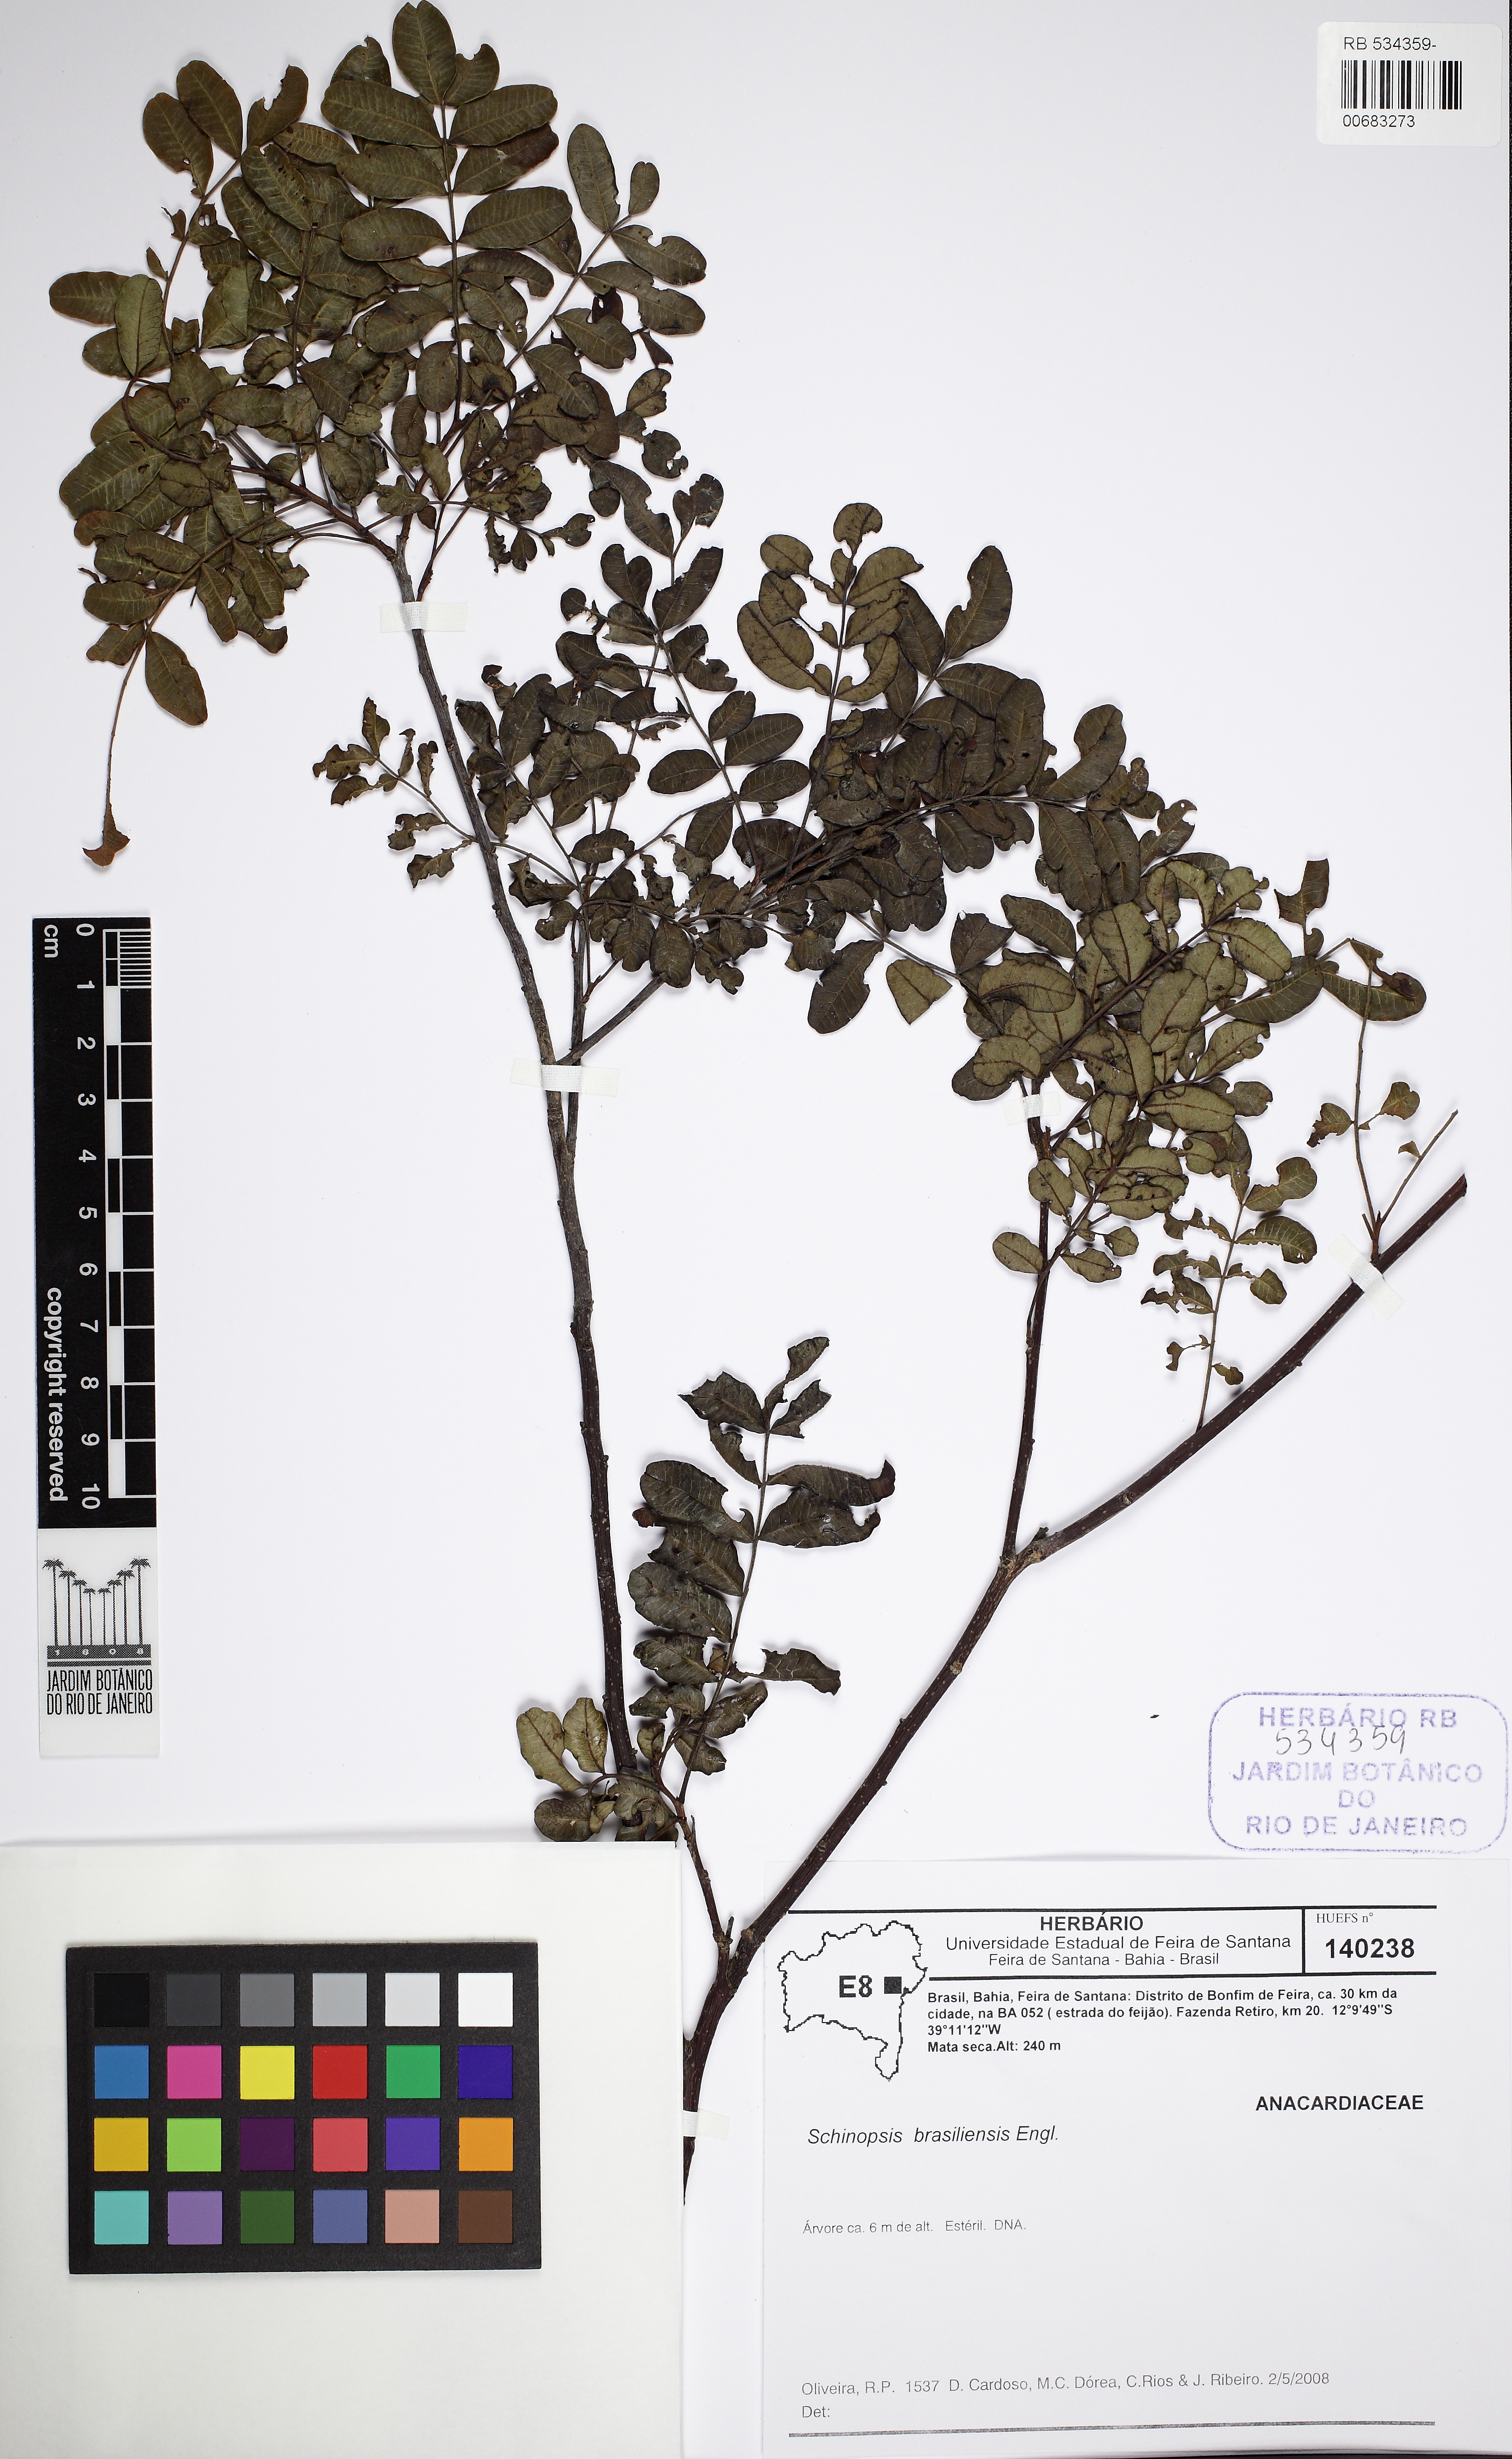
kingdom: Plantae
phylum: Tracheophyta
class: Magnoliopsida
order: Sapindales
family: Anacardiaceae
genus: Schinopsis
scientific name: Schinopsis brasiliensis
